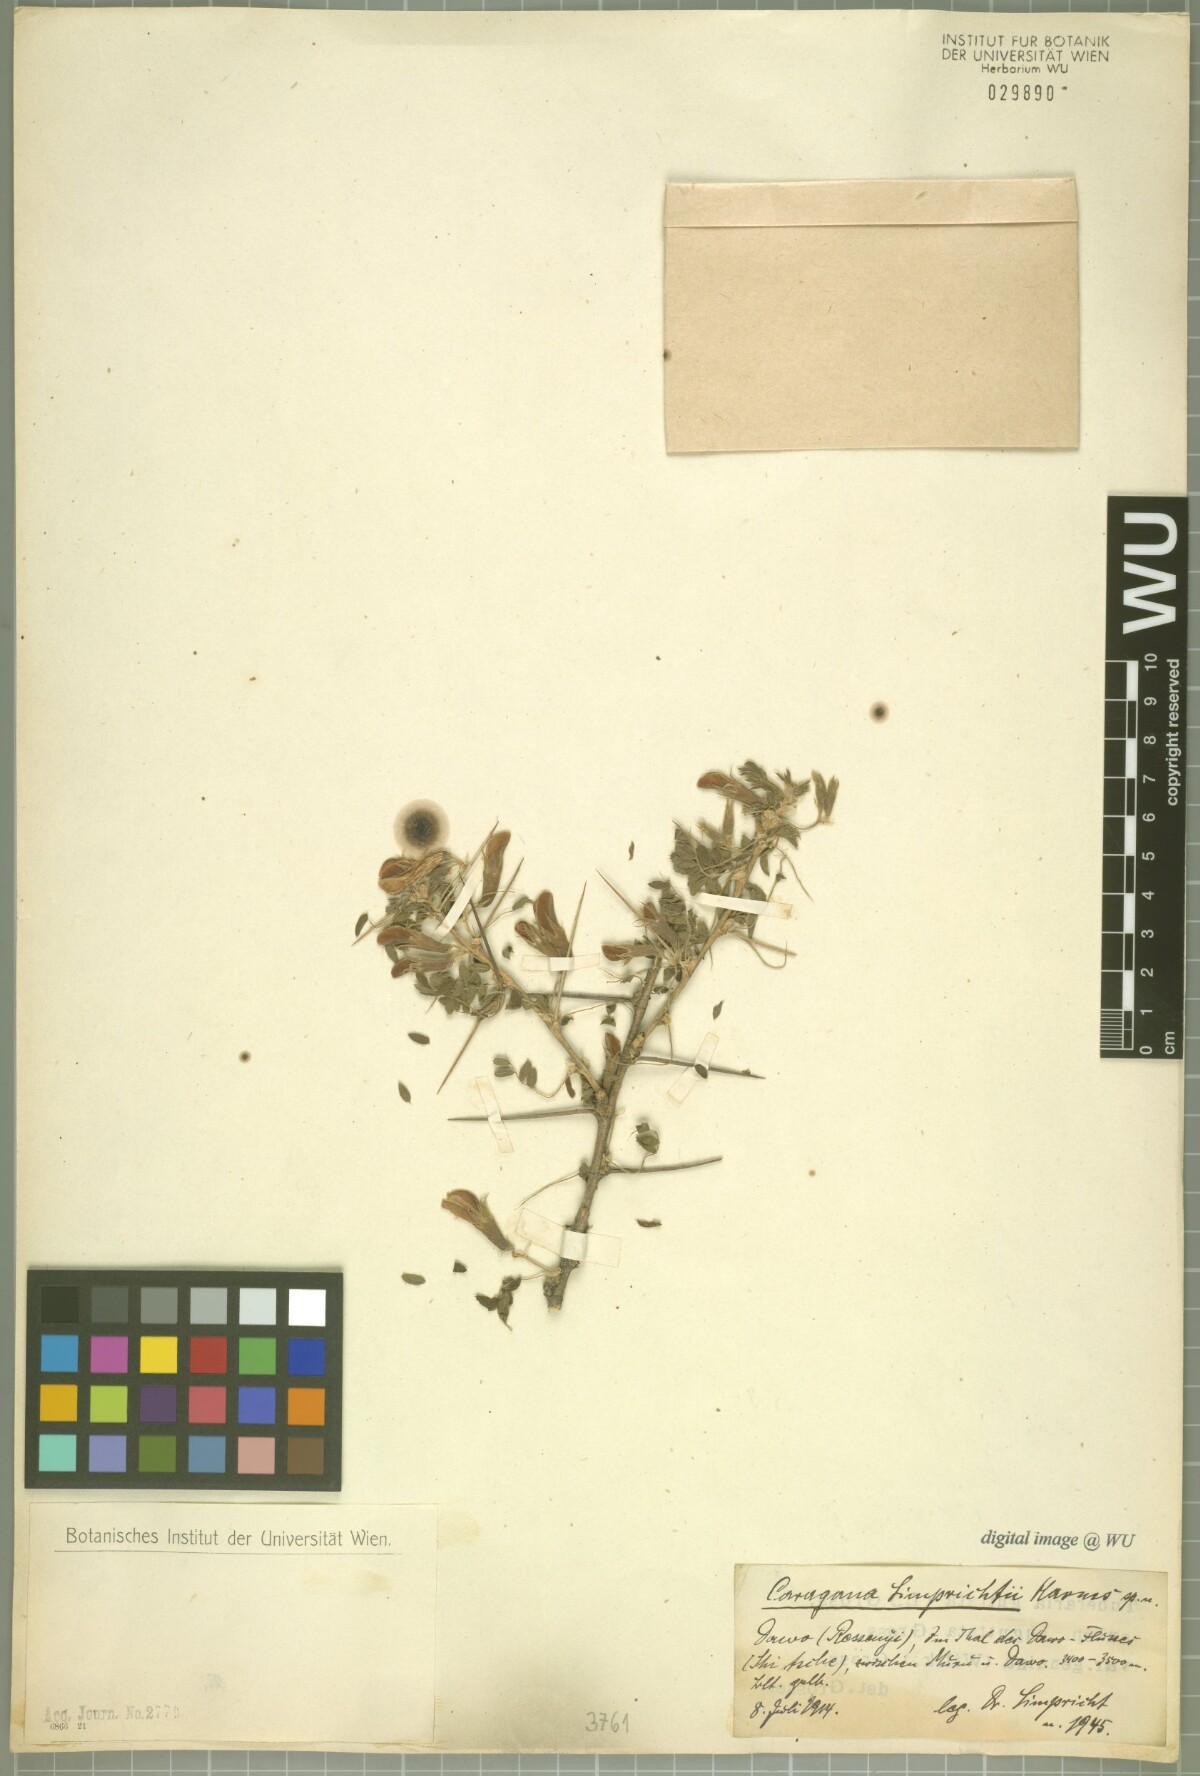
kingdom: Plantae
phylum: Tracheophyta
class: Magnoliopsida
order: Fabales
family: Fabaceae
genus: Caragana
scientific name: Caragana bicolor
